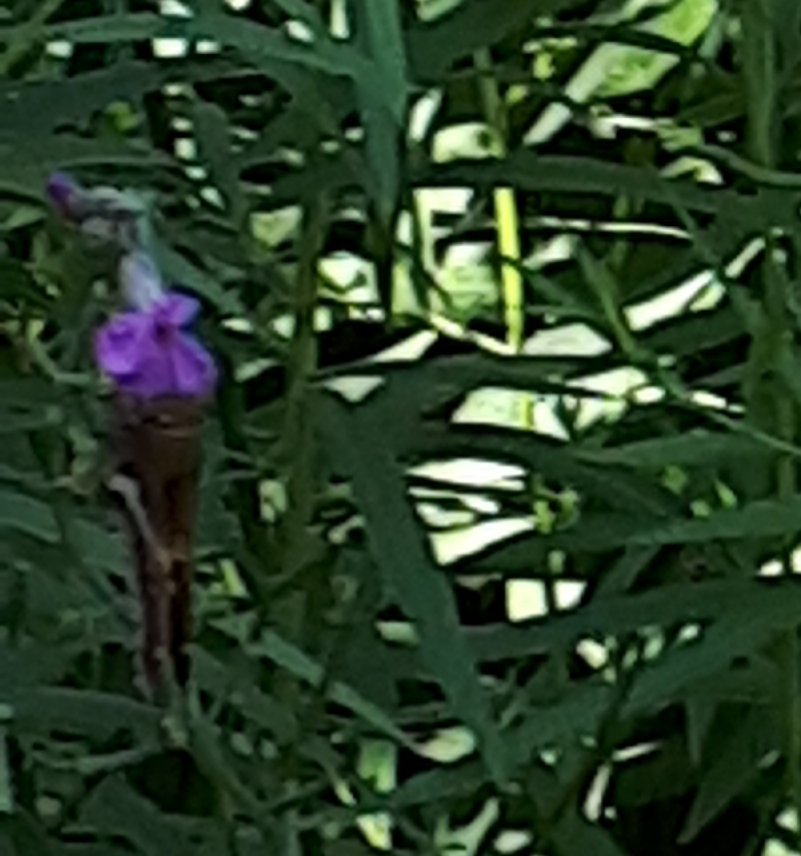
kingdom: Animalia
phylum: Arthropoda
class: Insecta
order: Lepidoptera
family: Hesperiidae
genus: Epargyreus
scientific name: Epargyreus clarus
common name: Silver-spotted Skipper
